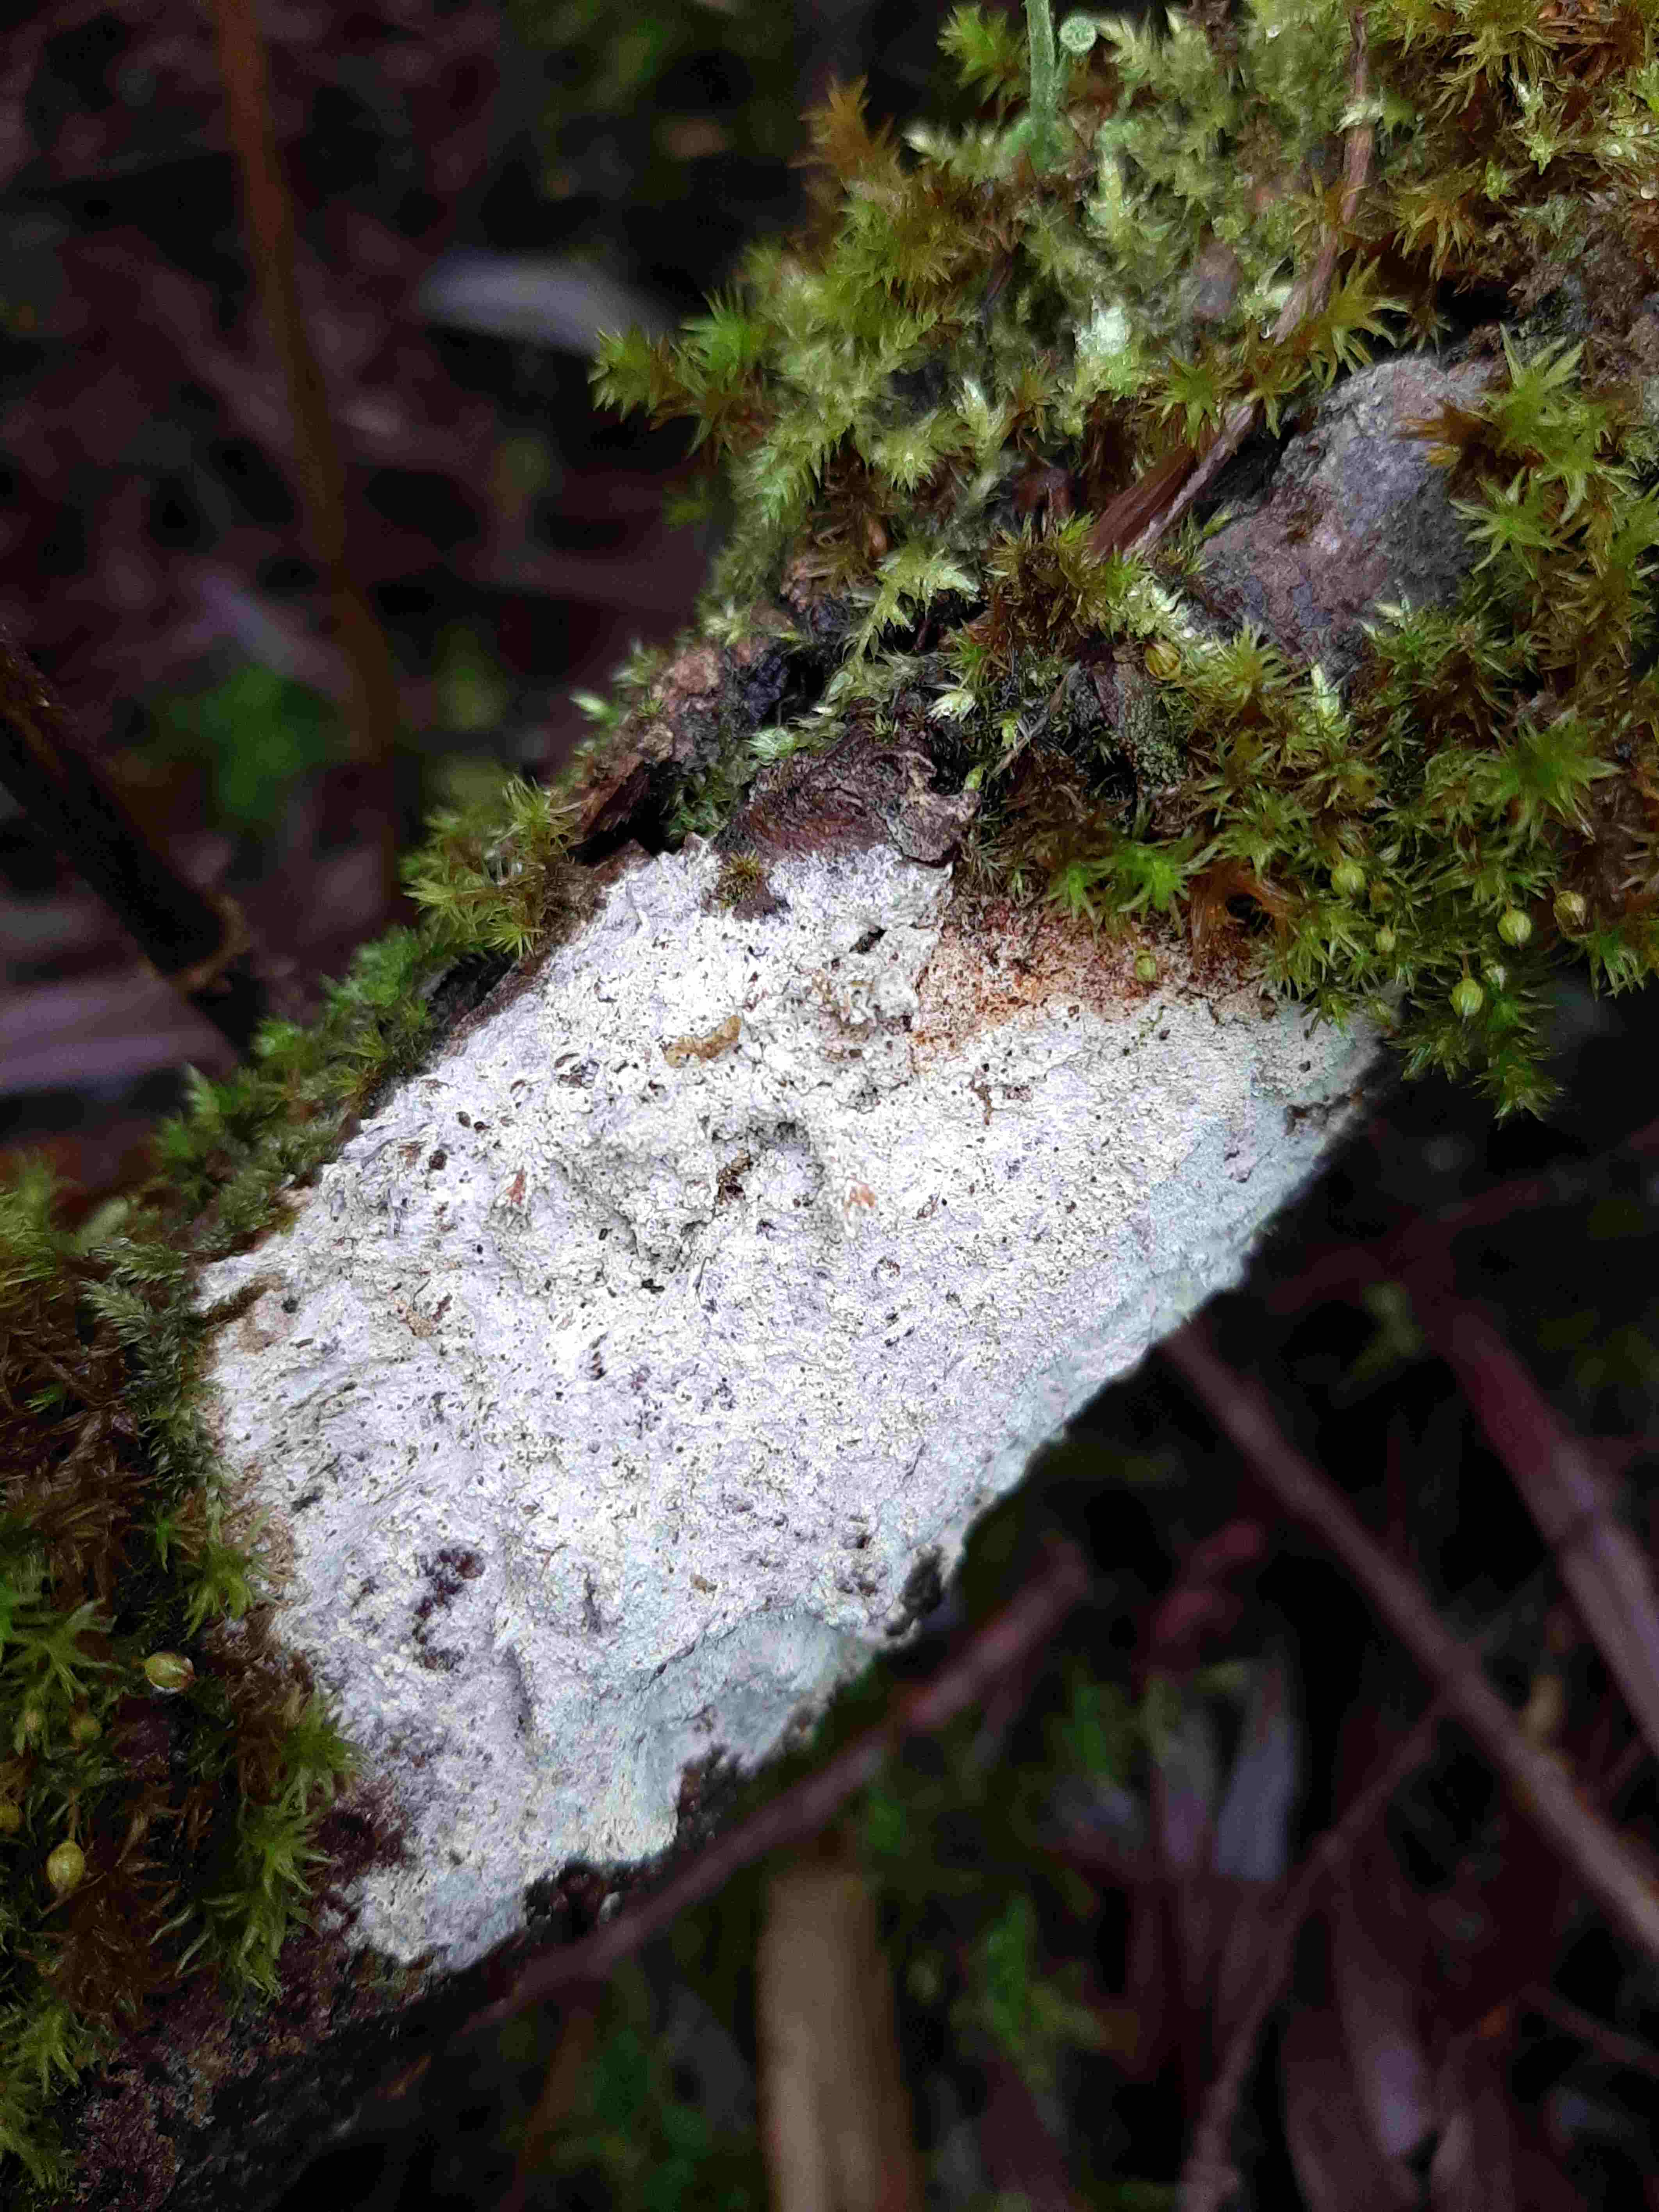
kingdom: Fungi
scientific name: Fungi
